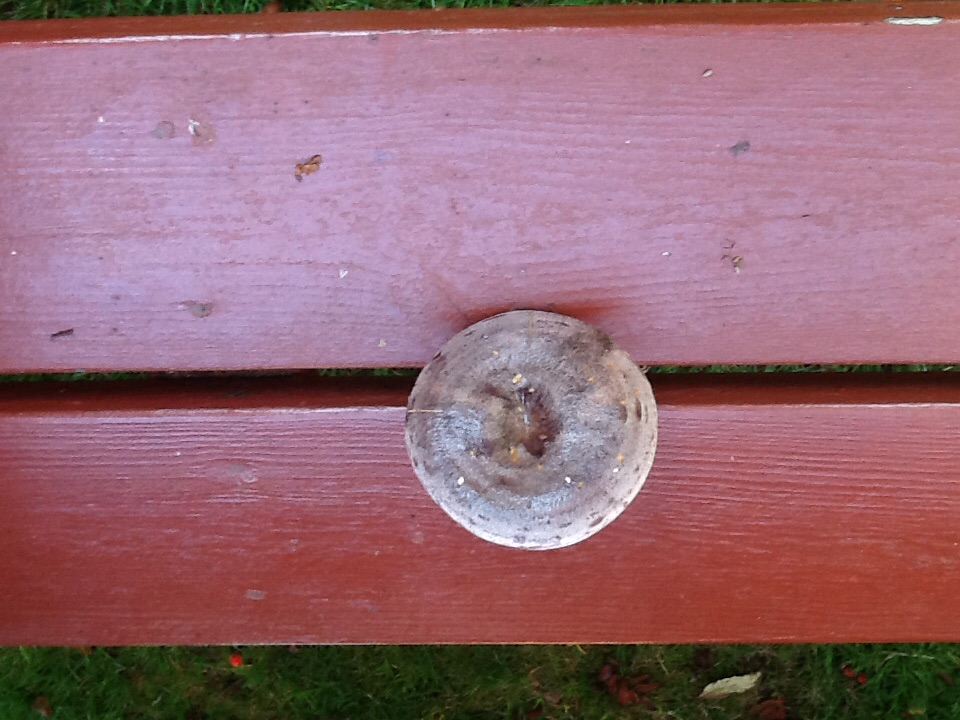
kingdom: Fungi
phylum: Basidiomycota
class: Agaricomycetes
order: Russulales
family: Russulaceae
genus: Lactarius
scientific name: Lactarius trivialis
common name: nordisk mælkehat
